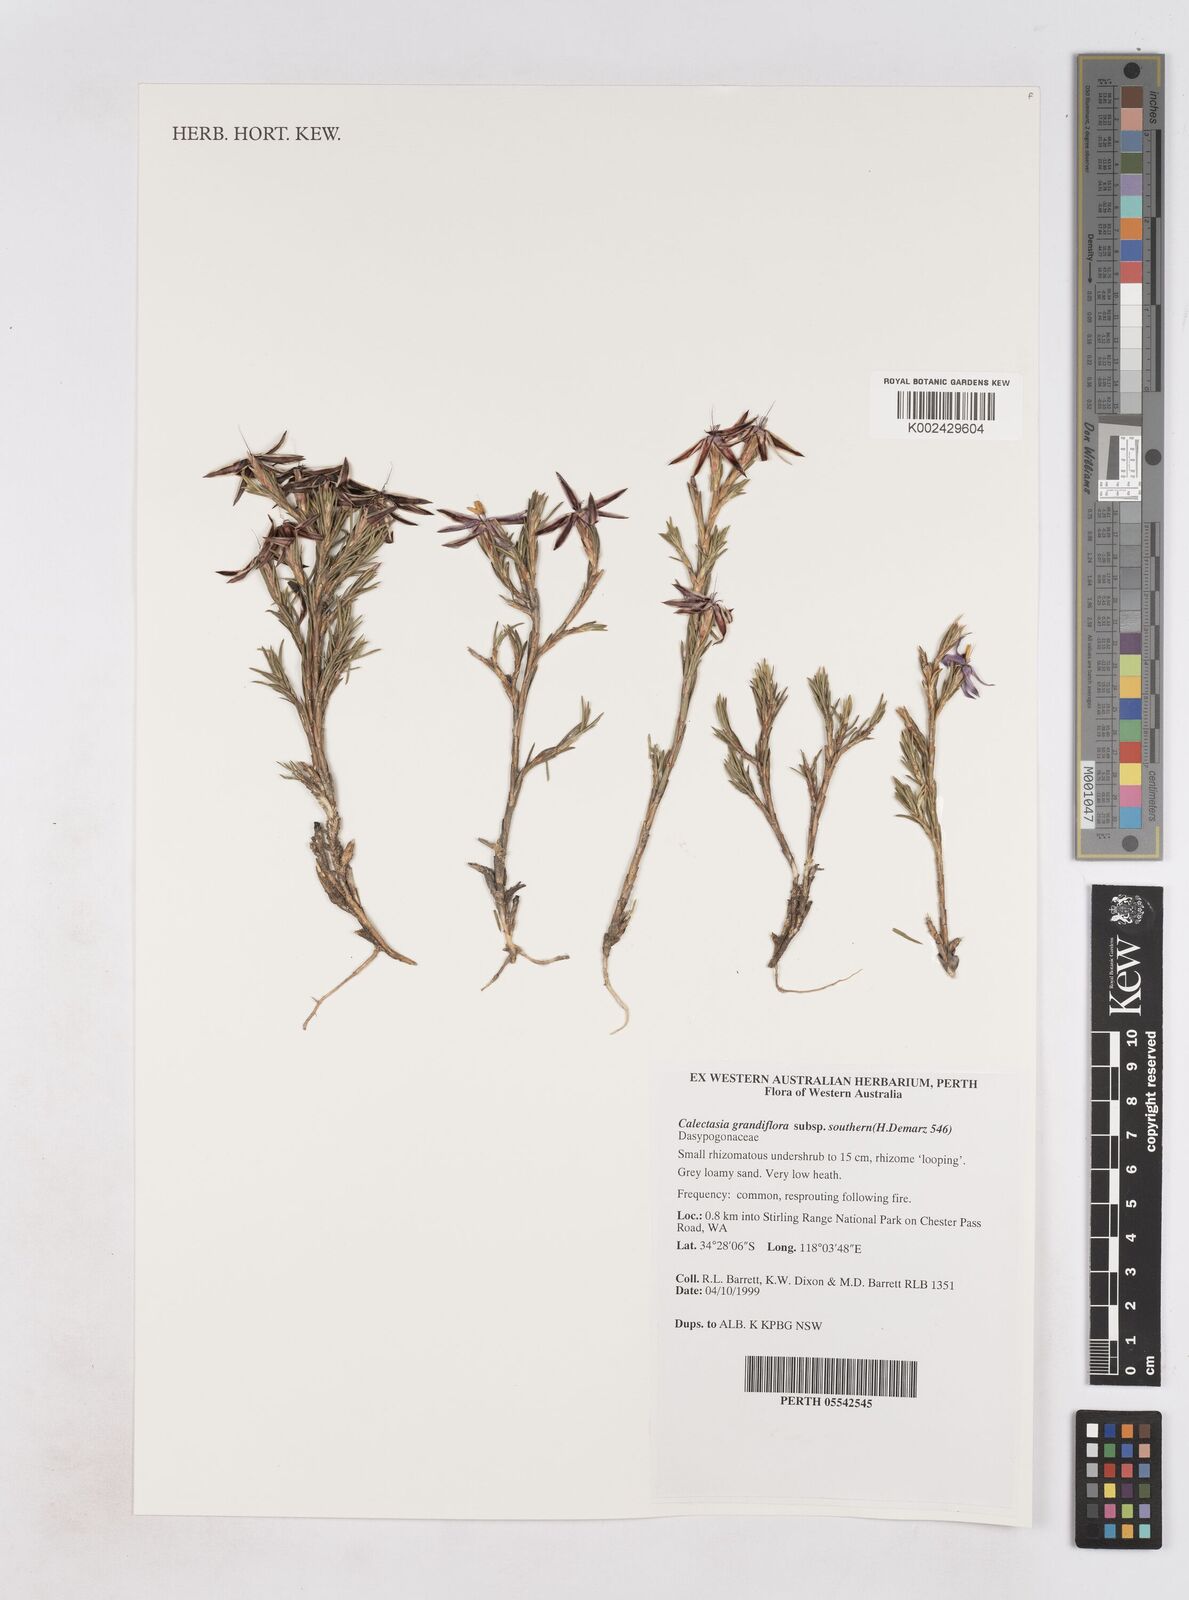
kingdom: Plantae
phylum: Tracheophyta
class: Liliopsida
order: Arecales
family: Dasypogonaceae
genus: Calectasia
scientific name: Calectasia grandiflora
